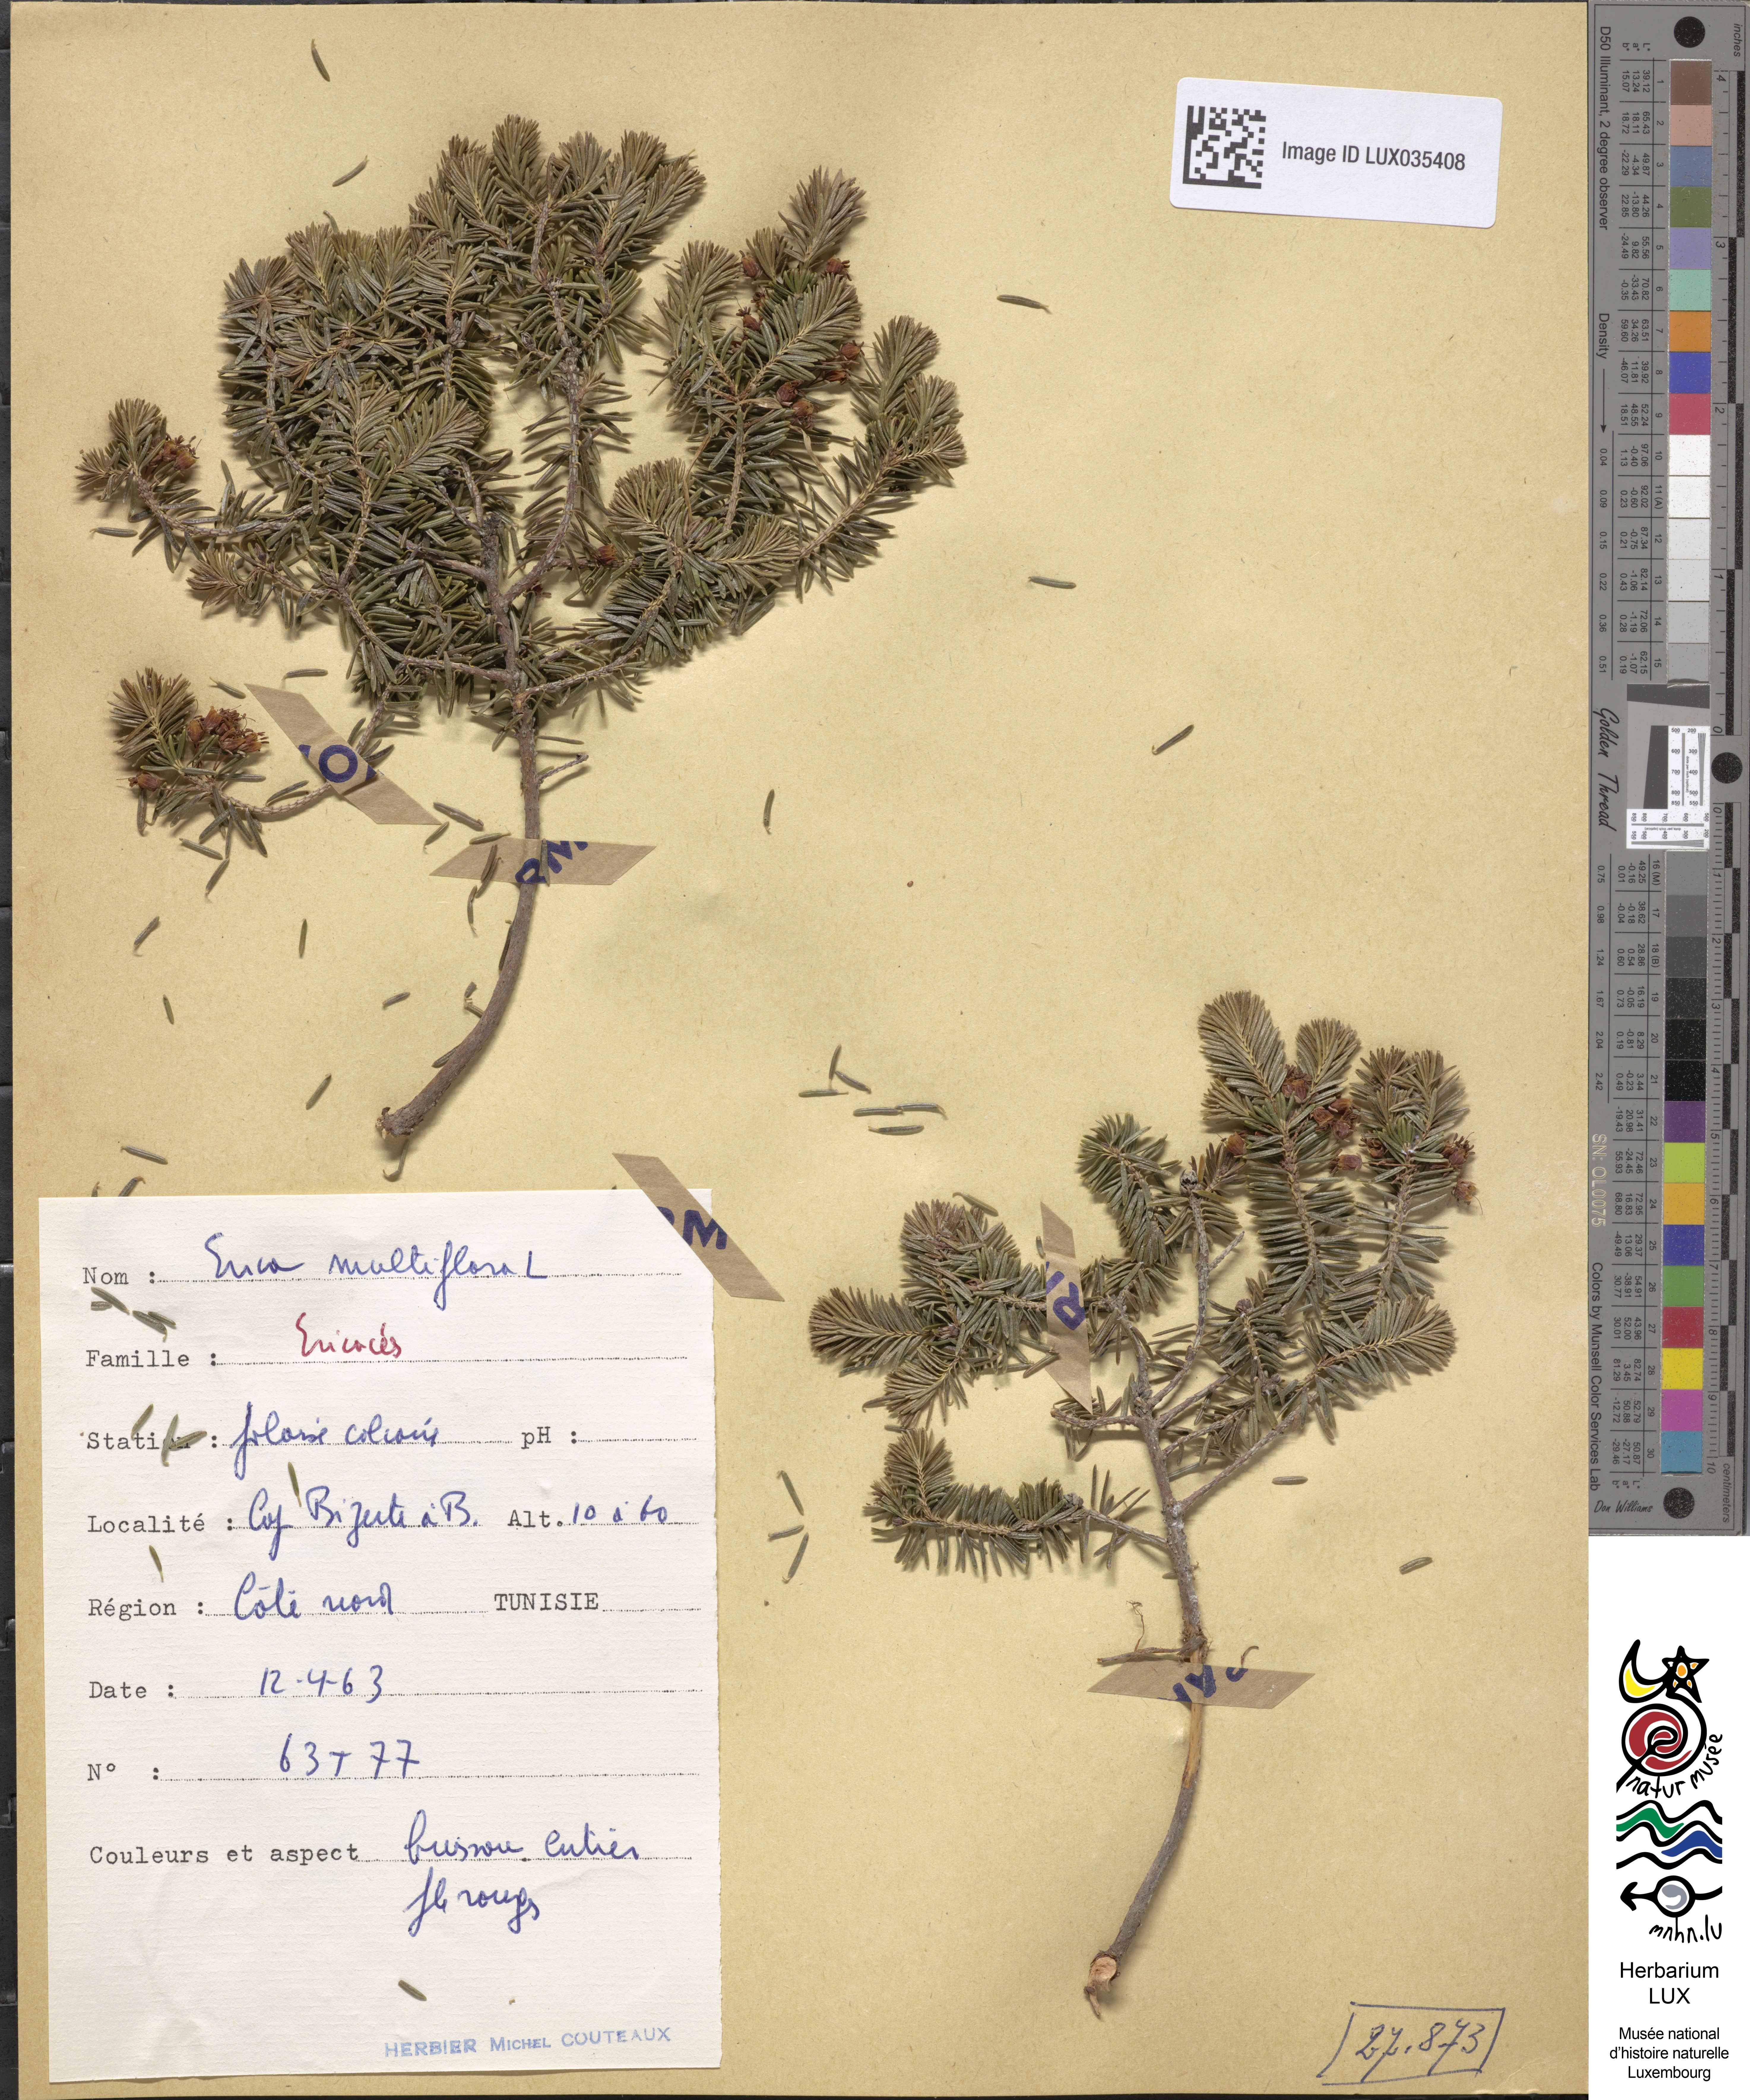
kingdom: Plantae
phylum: Tracheophyta
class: Magnoliopsida
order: Ericales
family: Ericaceae
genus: Erica
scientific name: Erica multiflora
